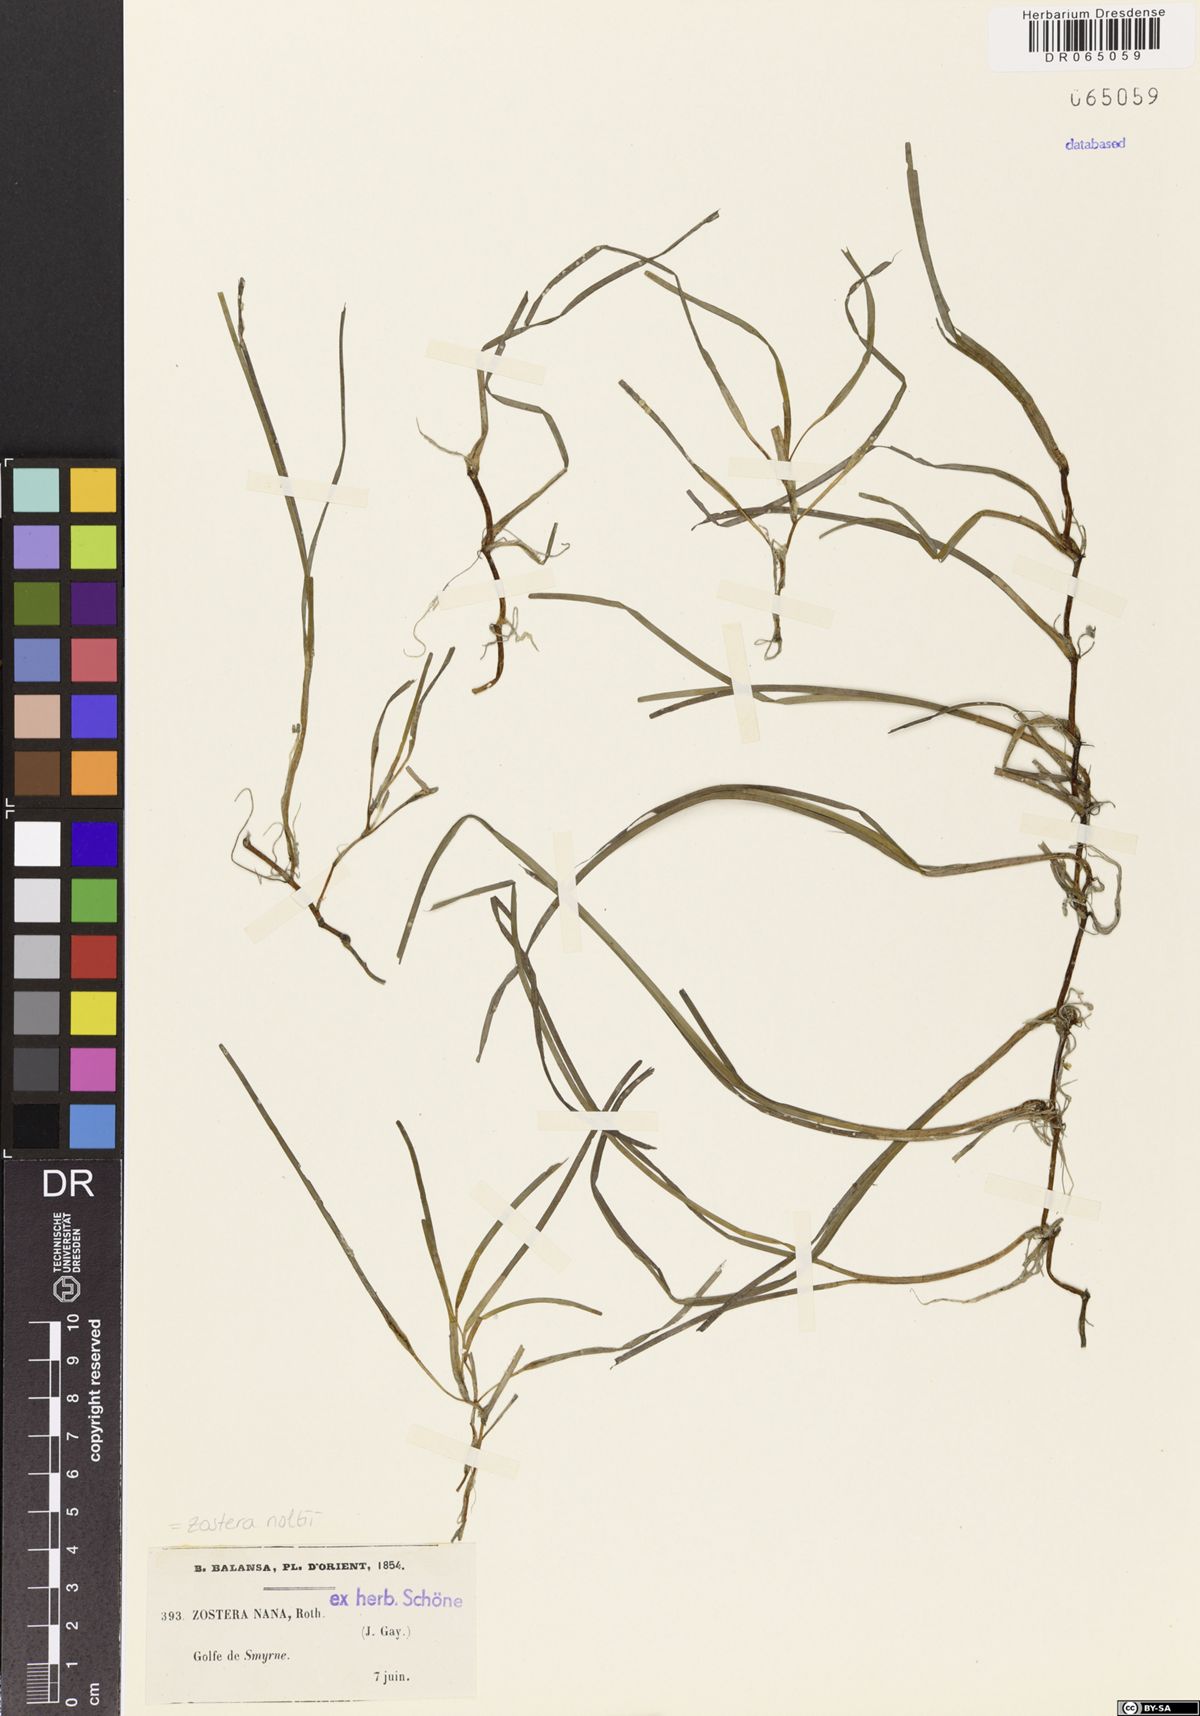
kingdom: Plantae
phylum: Tracheophyta
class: Liliopsida
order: Alismatales
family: Zosteraceae
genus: Zostera
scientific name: Zostera noltii
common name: Dwarf eelgrass
